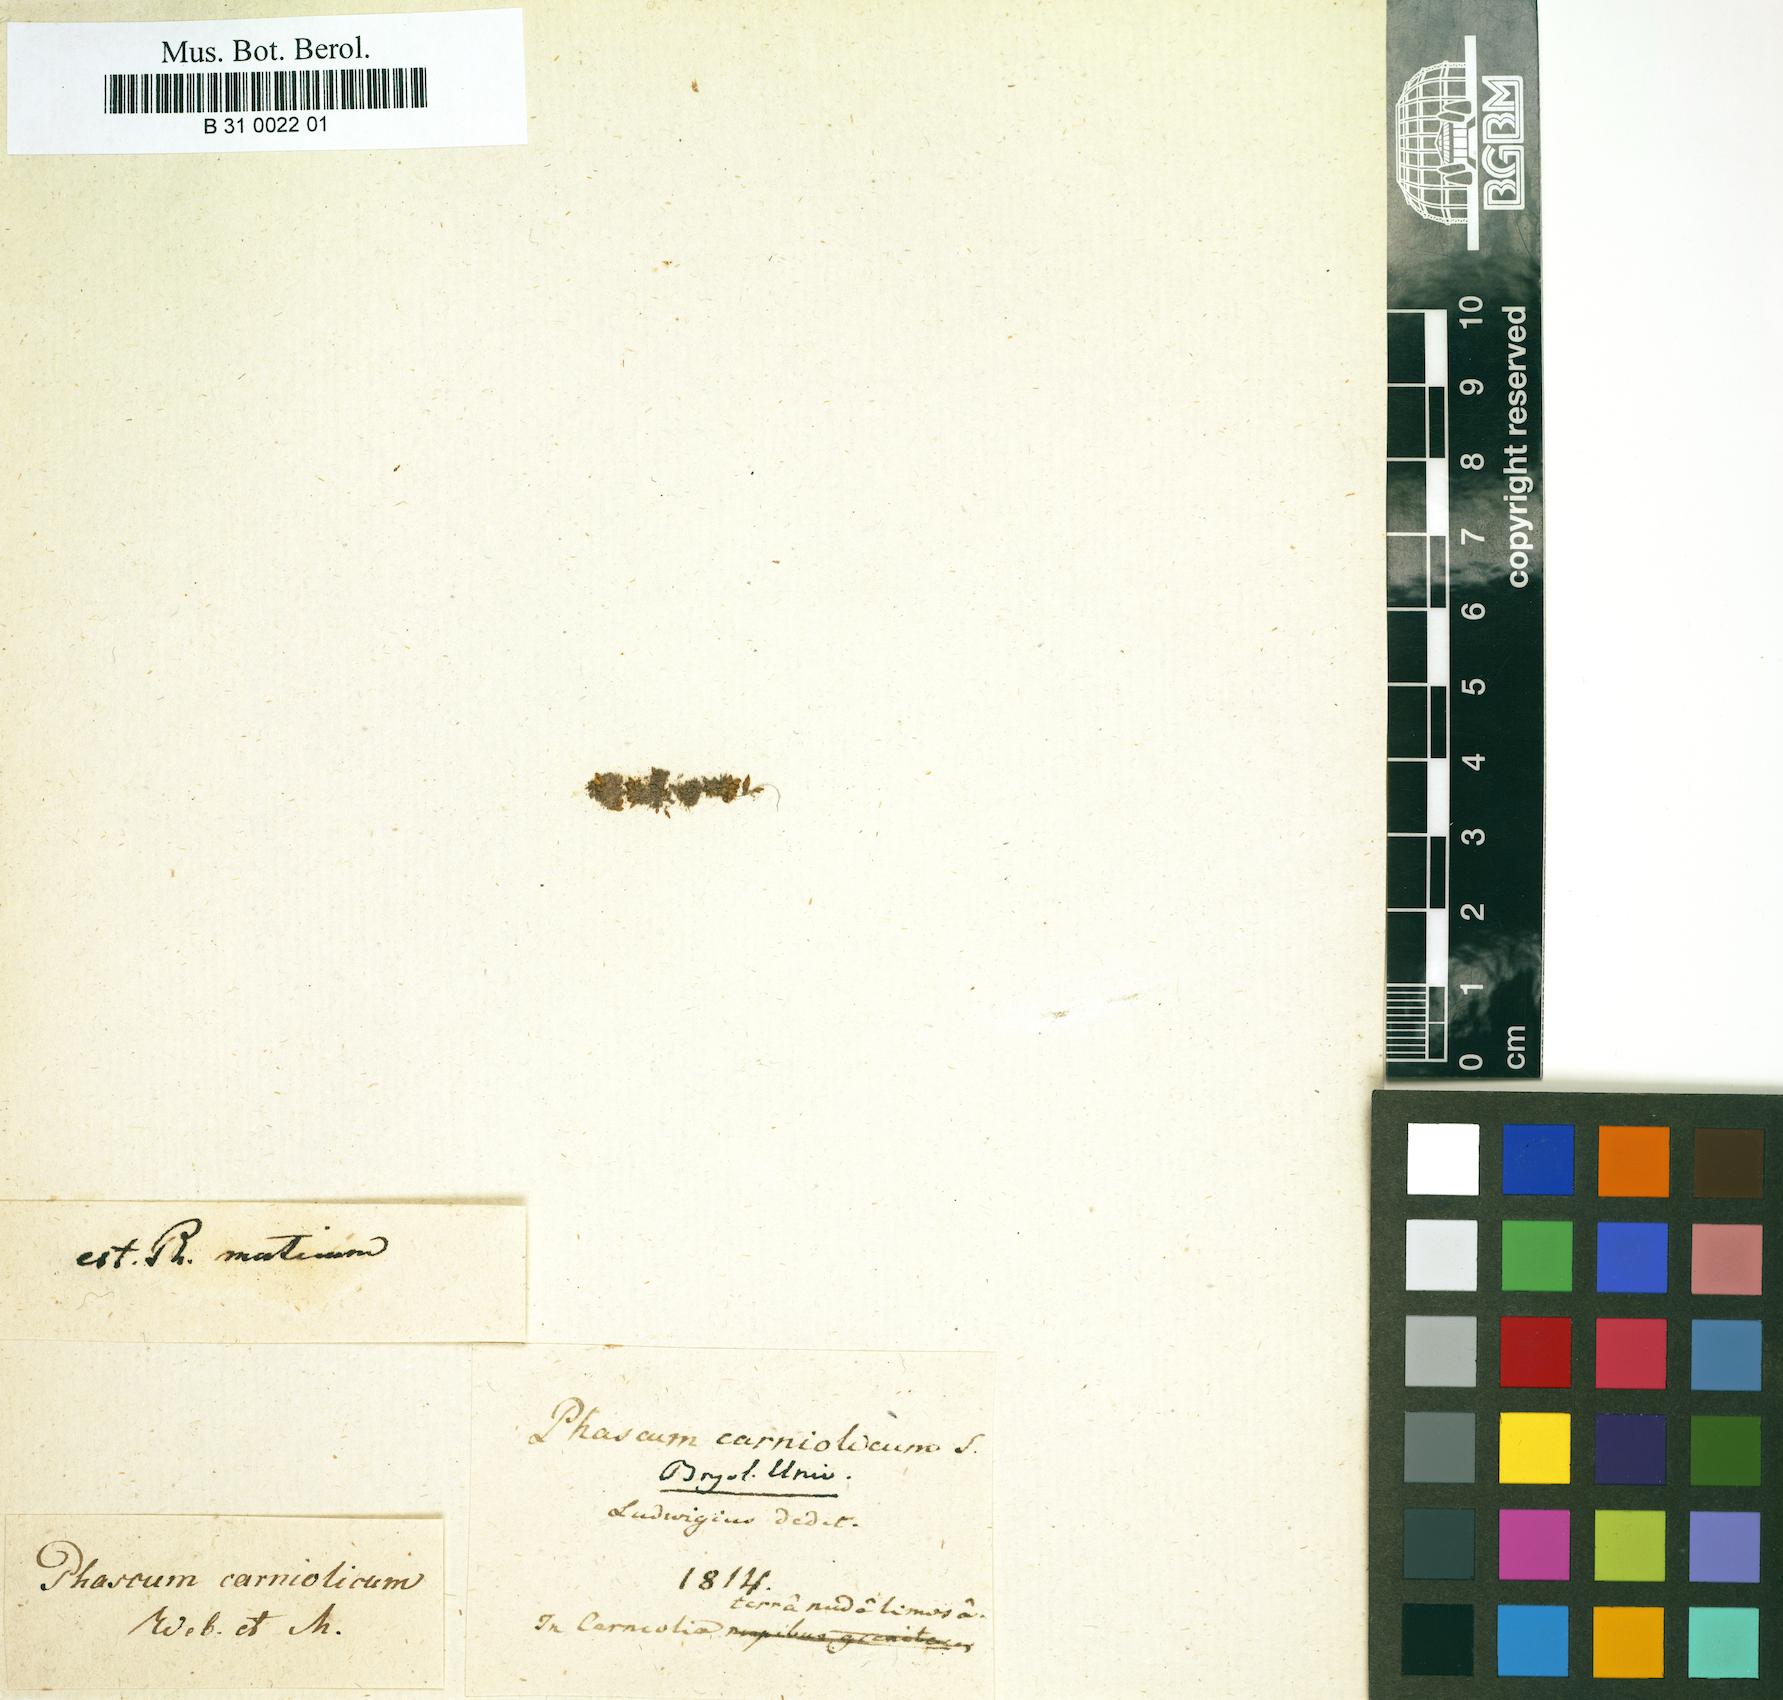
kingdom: Plantae
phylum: Bryophyta
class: Bryopsida
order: Pottiales
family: Pottiaceae
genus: Acaulon
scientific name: Acaulon muticum
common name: Rounded pygmy-moss
